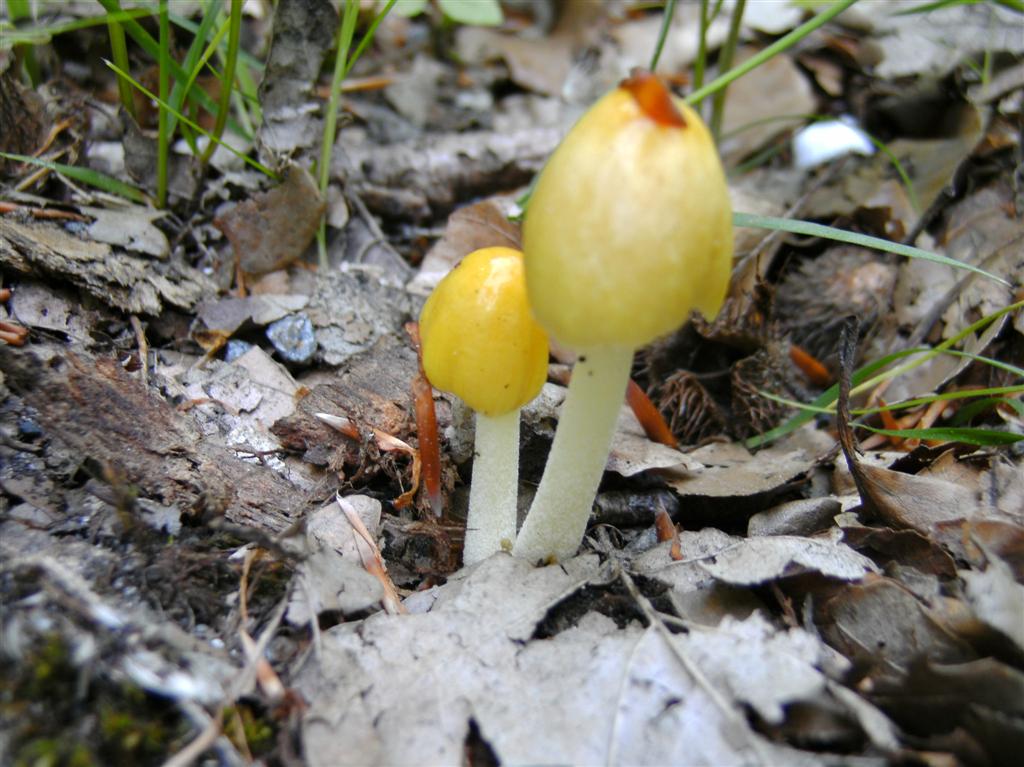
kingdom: Fungi
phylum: Basidiomycota
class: Agaricomycetes
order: Agaricales
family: Bolbitiaceae
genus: Bolbitius
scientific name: Bolbitius titubans
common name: almindelig gulhat
